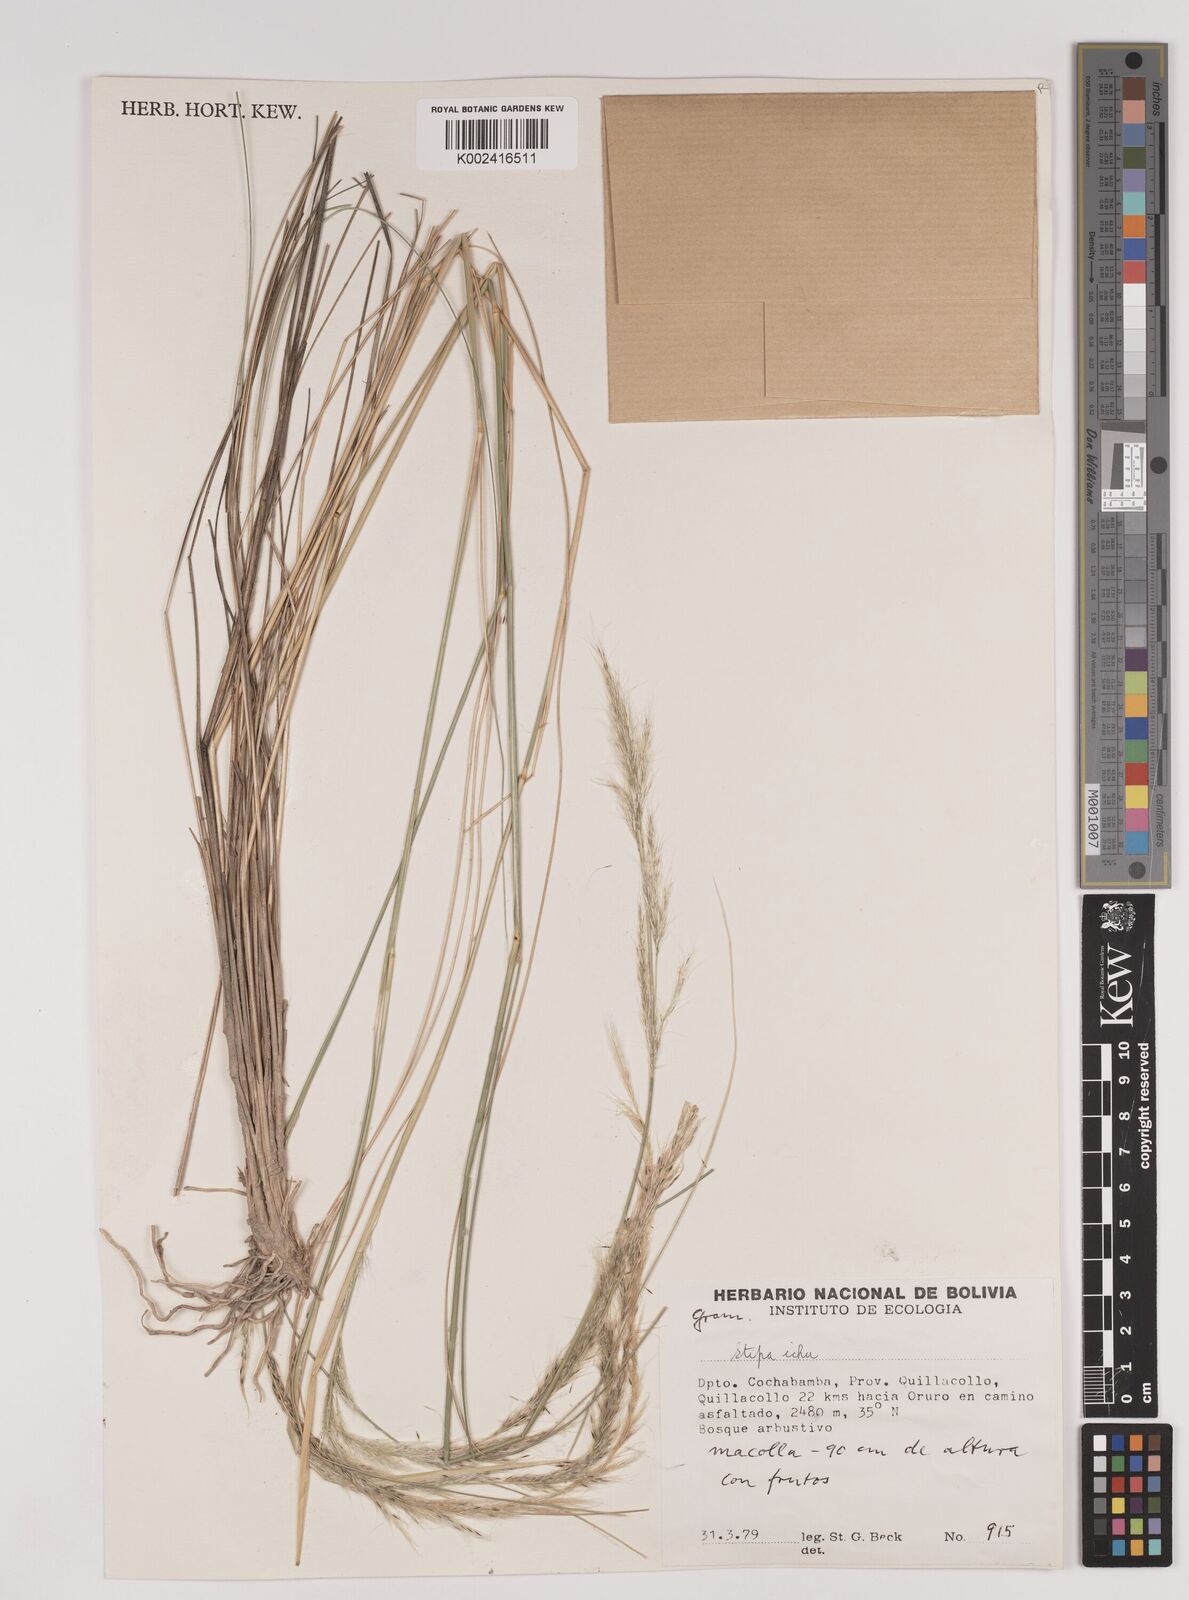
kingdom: Plantae
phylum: Tracheophyta
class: Liliopsida
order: Poales
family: Poaceae
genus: Jarava
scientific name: Jarava ichu
